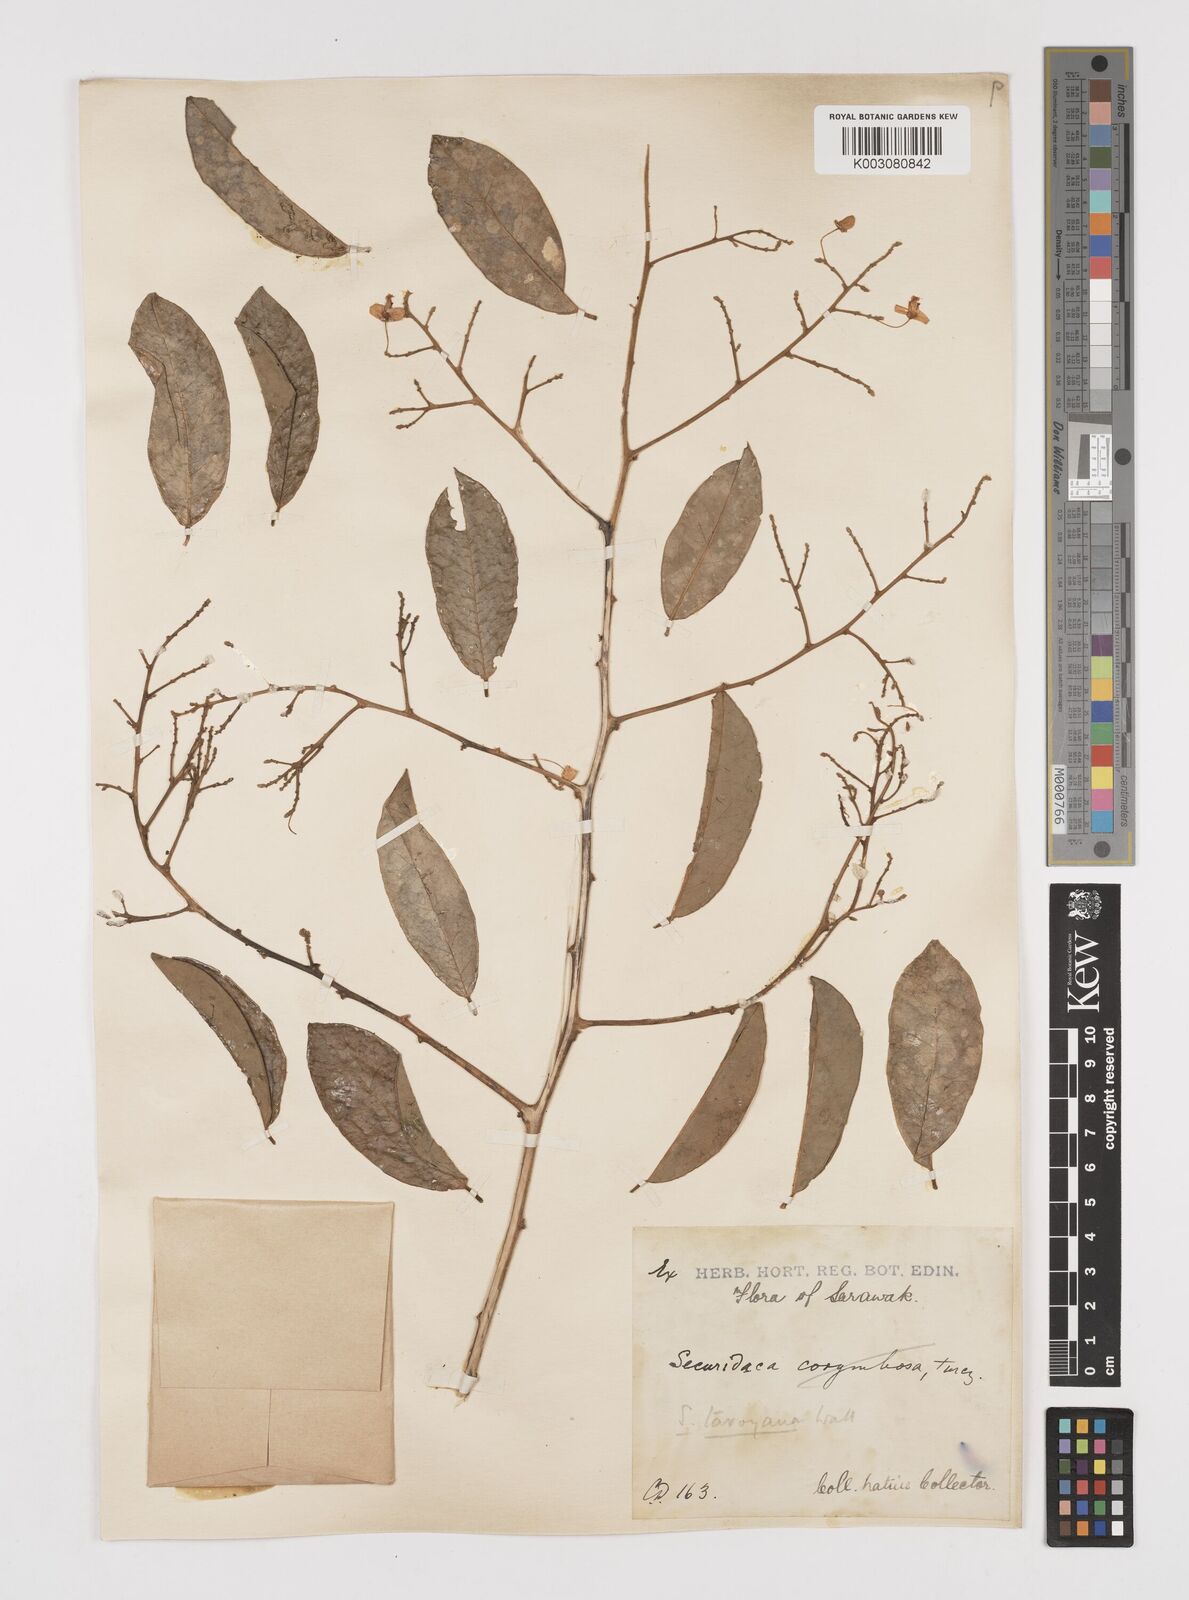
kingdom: Plantae
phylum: Tracheophyta
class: Magnoliopsida
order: Fabales
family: Polygalaceae
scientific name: Polygalaceae
